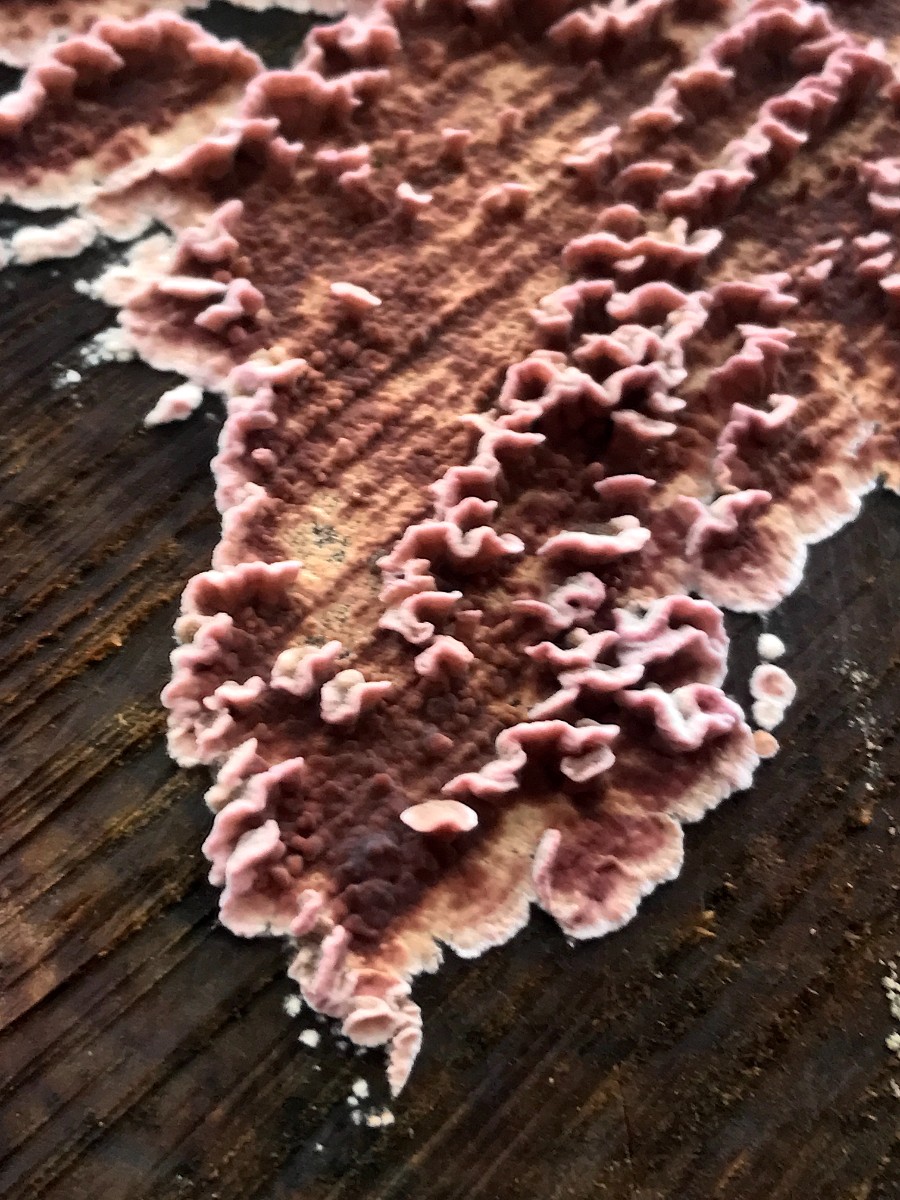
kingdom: Fungi
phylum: Basidiomycota
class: Agaricomycetes
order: Agaricales
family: Cyphellaceae
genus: Chondrostereum
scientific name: Chondrostereum purpureum
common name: purpurlædersvamp
